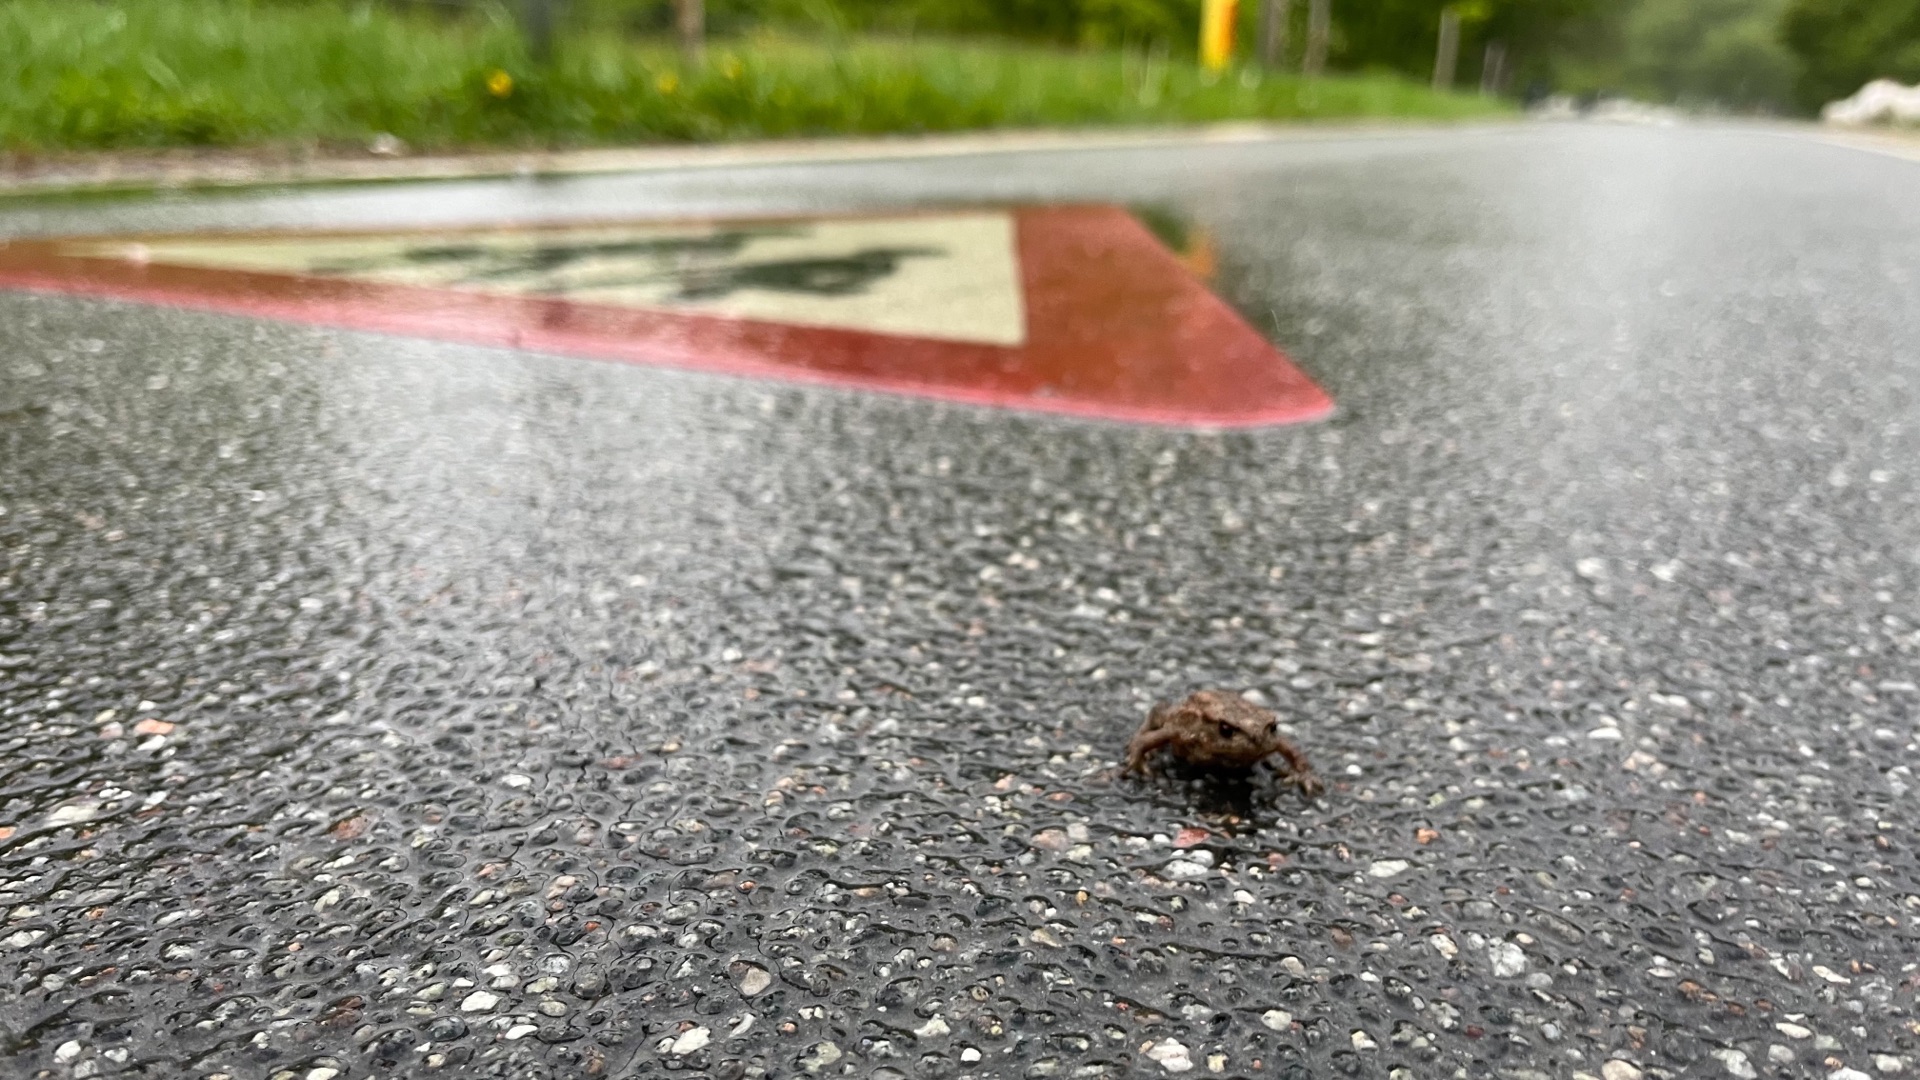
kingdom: Animalia
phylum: Chordata
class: Amphibia
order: Anura
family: Bufonidae
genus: Bufo
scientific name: Bufo bufo
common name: Skrubtudse
